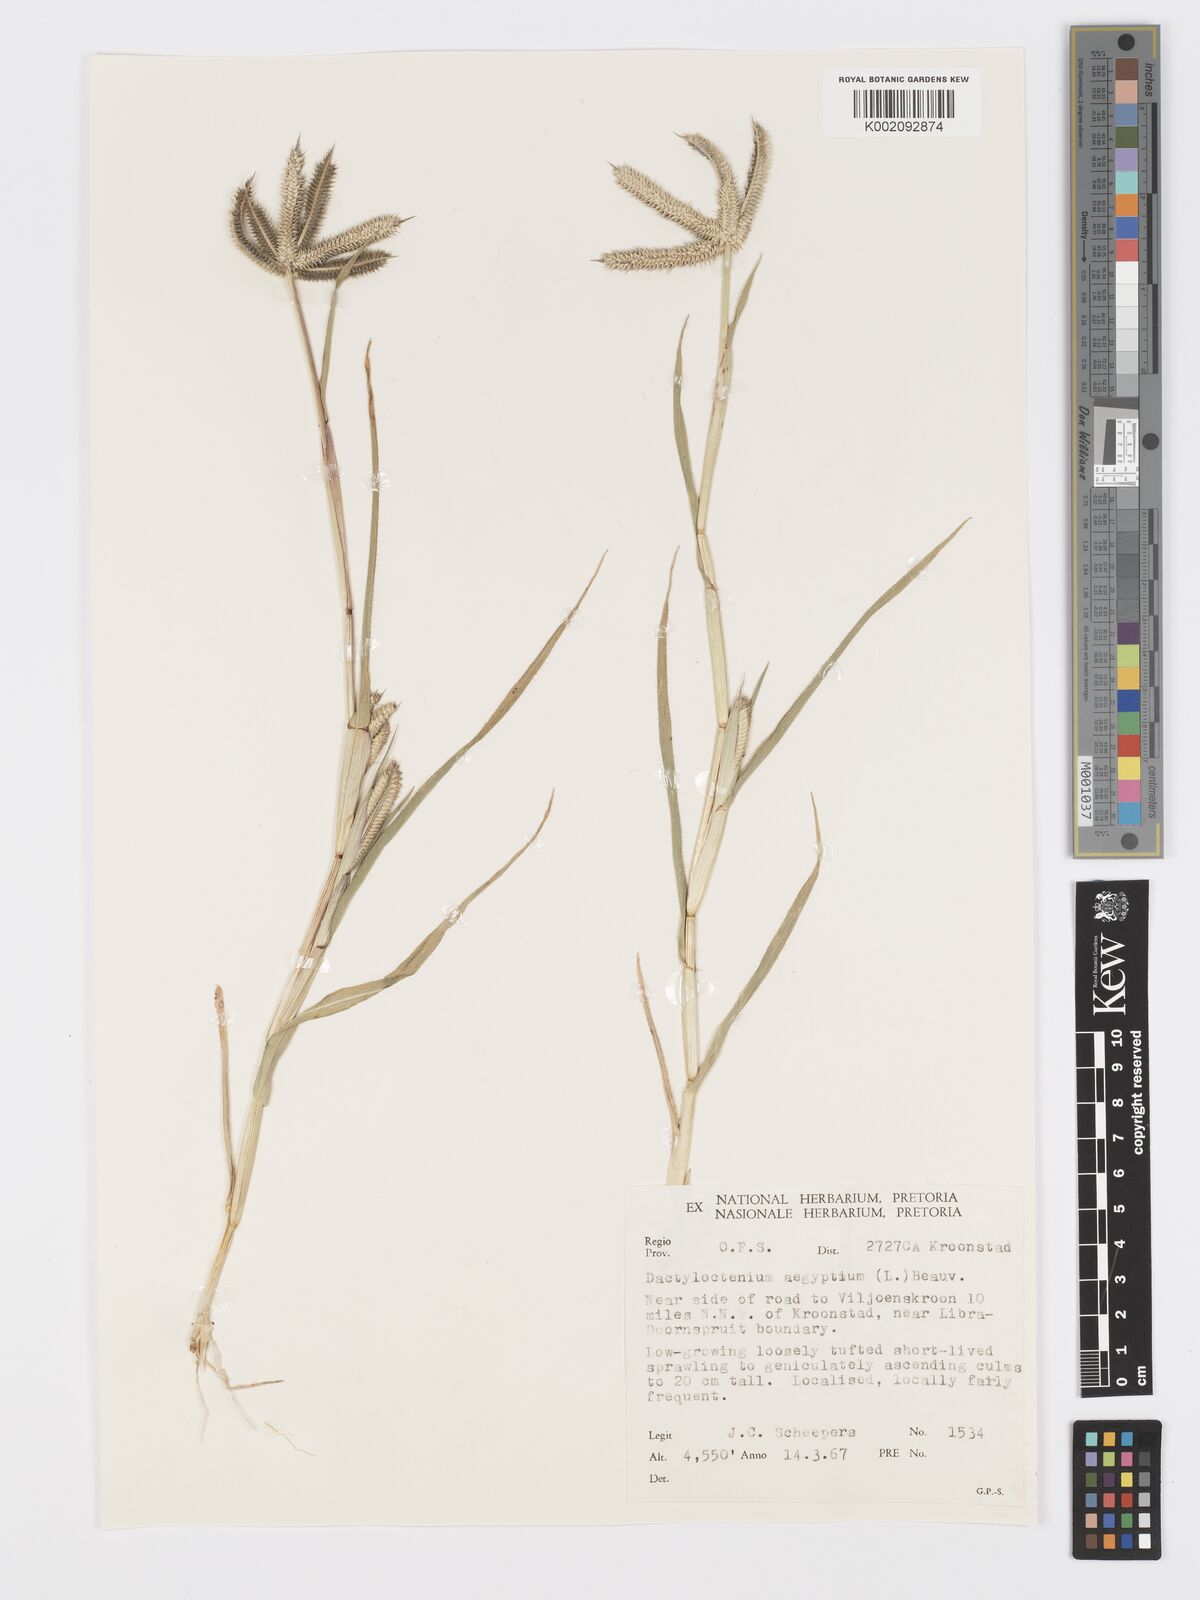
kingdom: Plantae
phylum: Tracheophyta
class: Liliopsida
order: Poales
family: Poaceae
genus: Dactyloctenium
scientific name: Dactyloctenium aegyptium
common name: Egyptian grass
